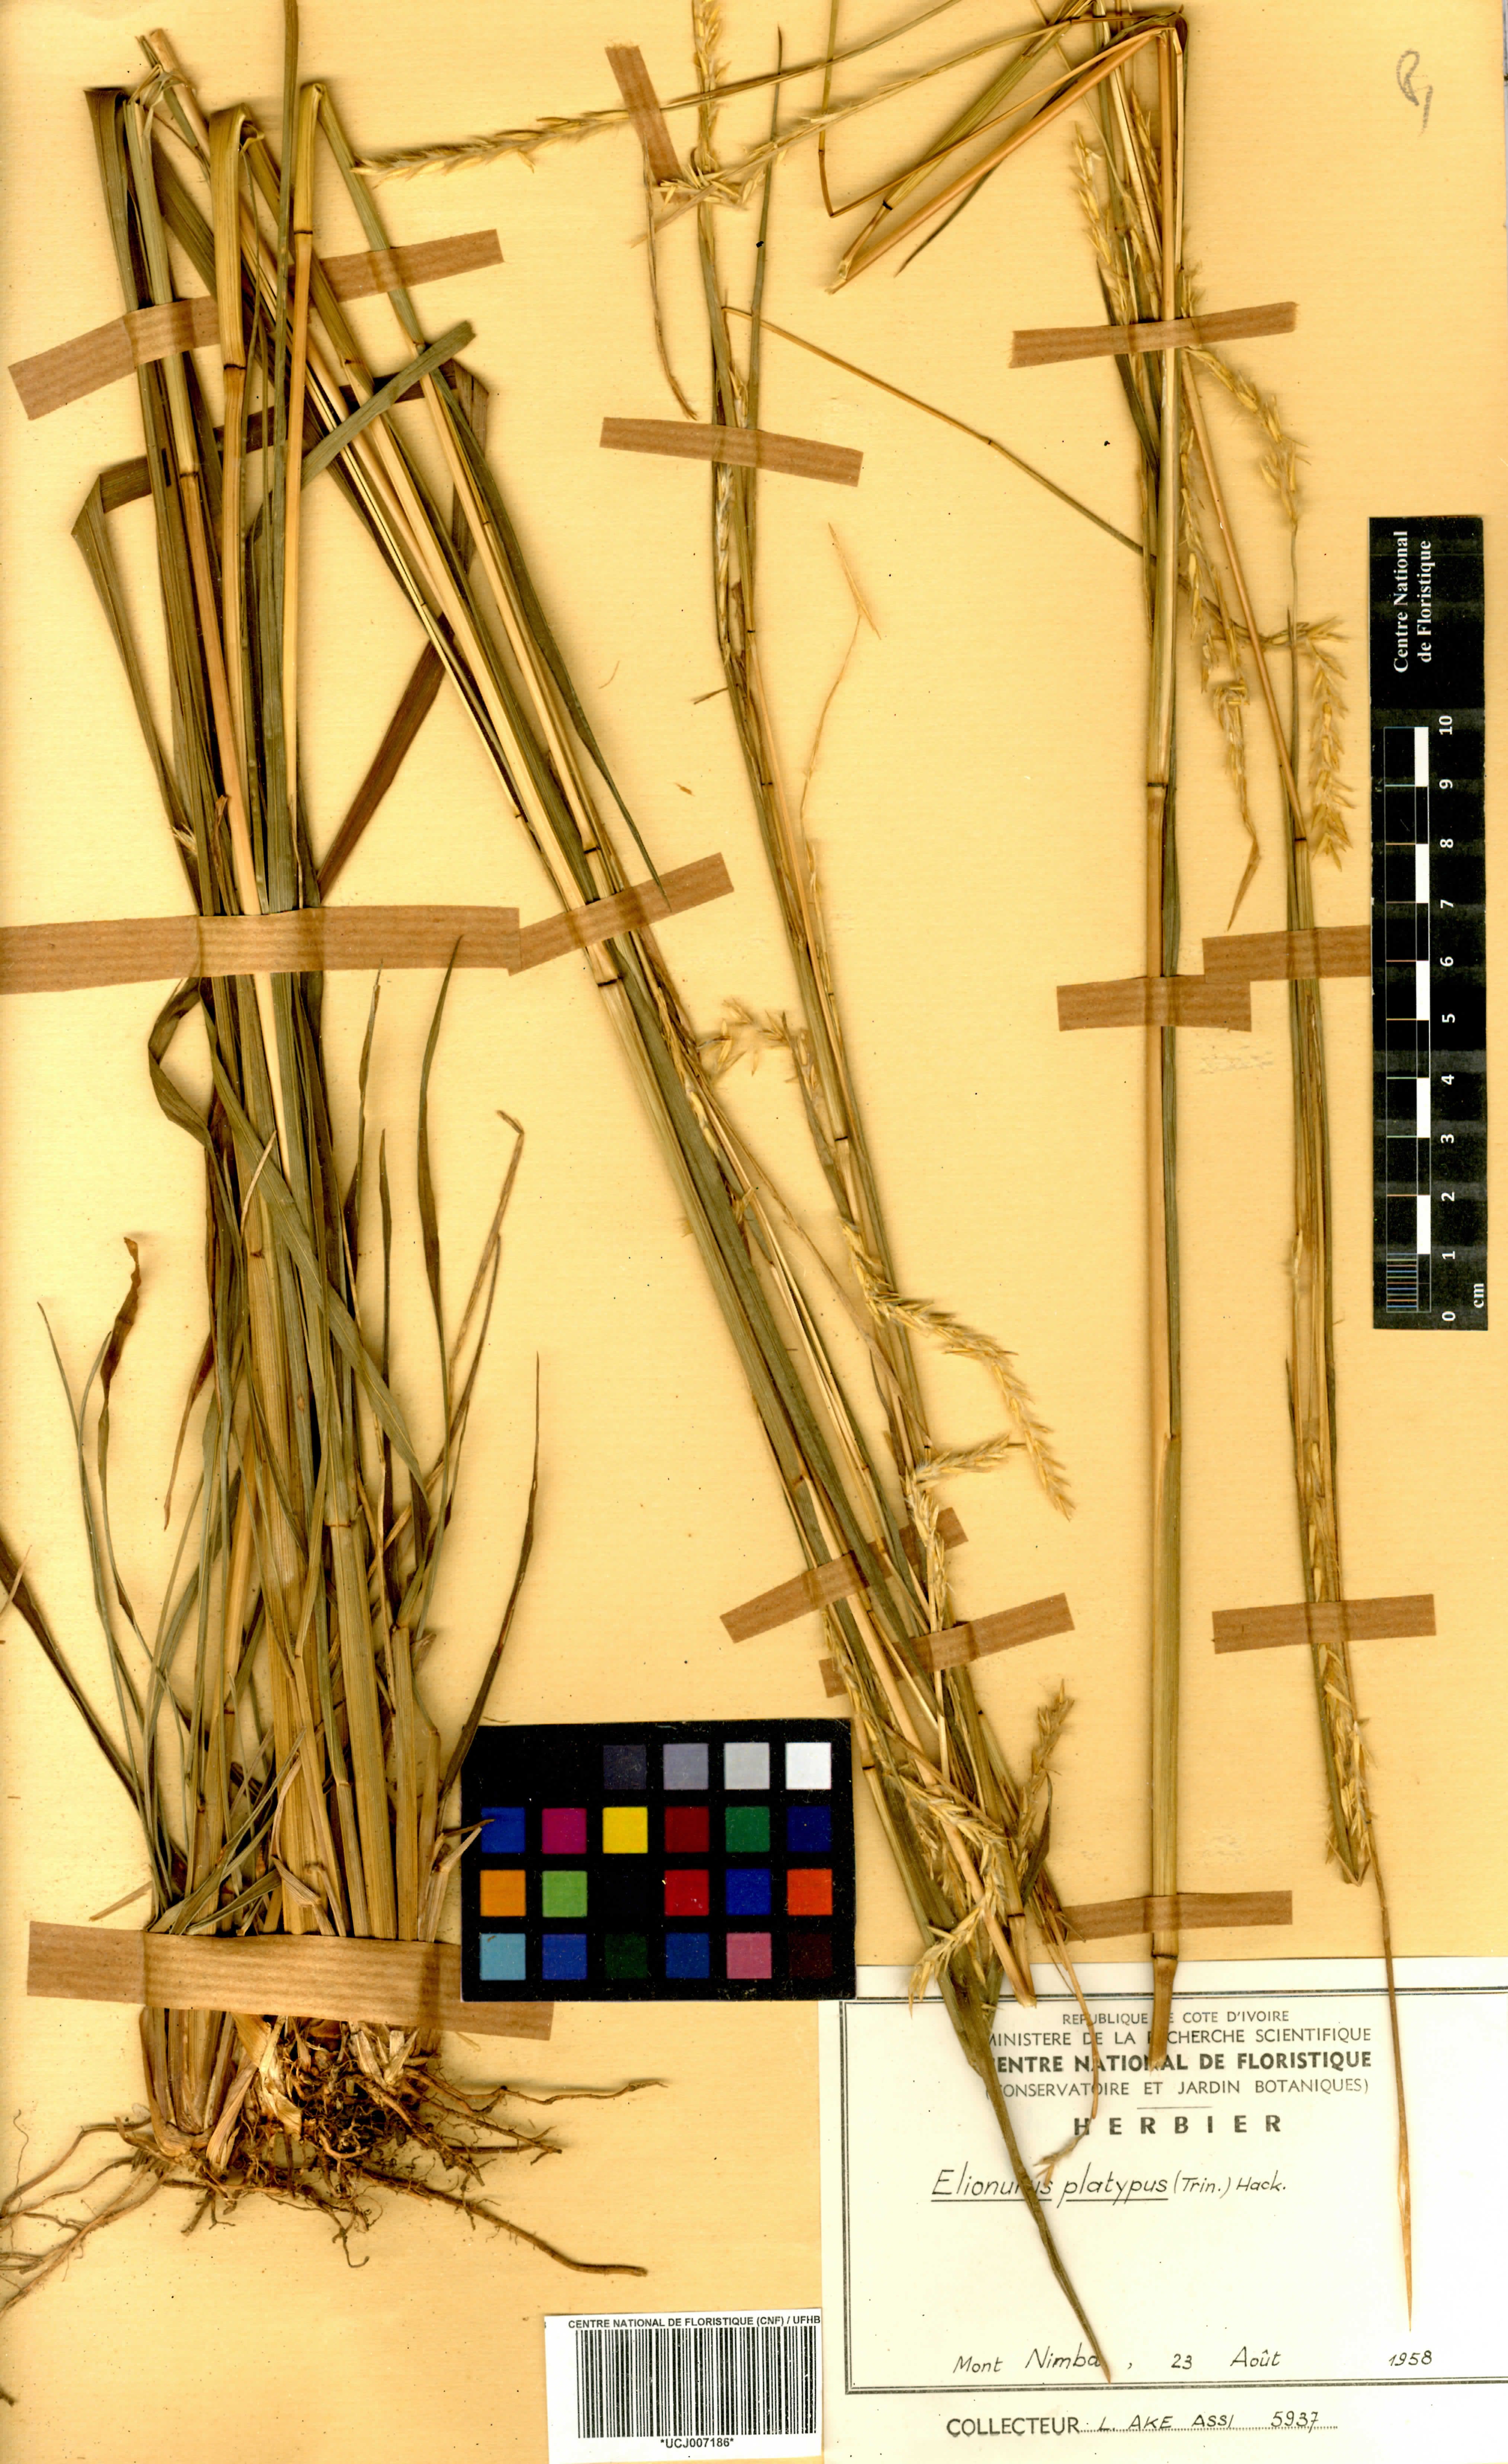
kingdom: Plantae
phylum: Tracheophyta
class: Liliopsida
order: Poales
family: Poaceae
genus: Elionurus
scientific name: Elionurus platypus
